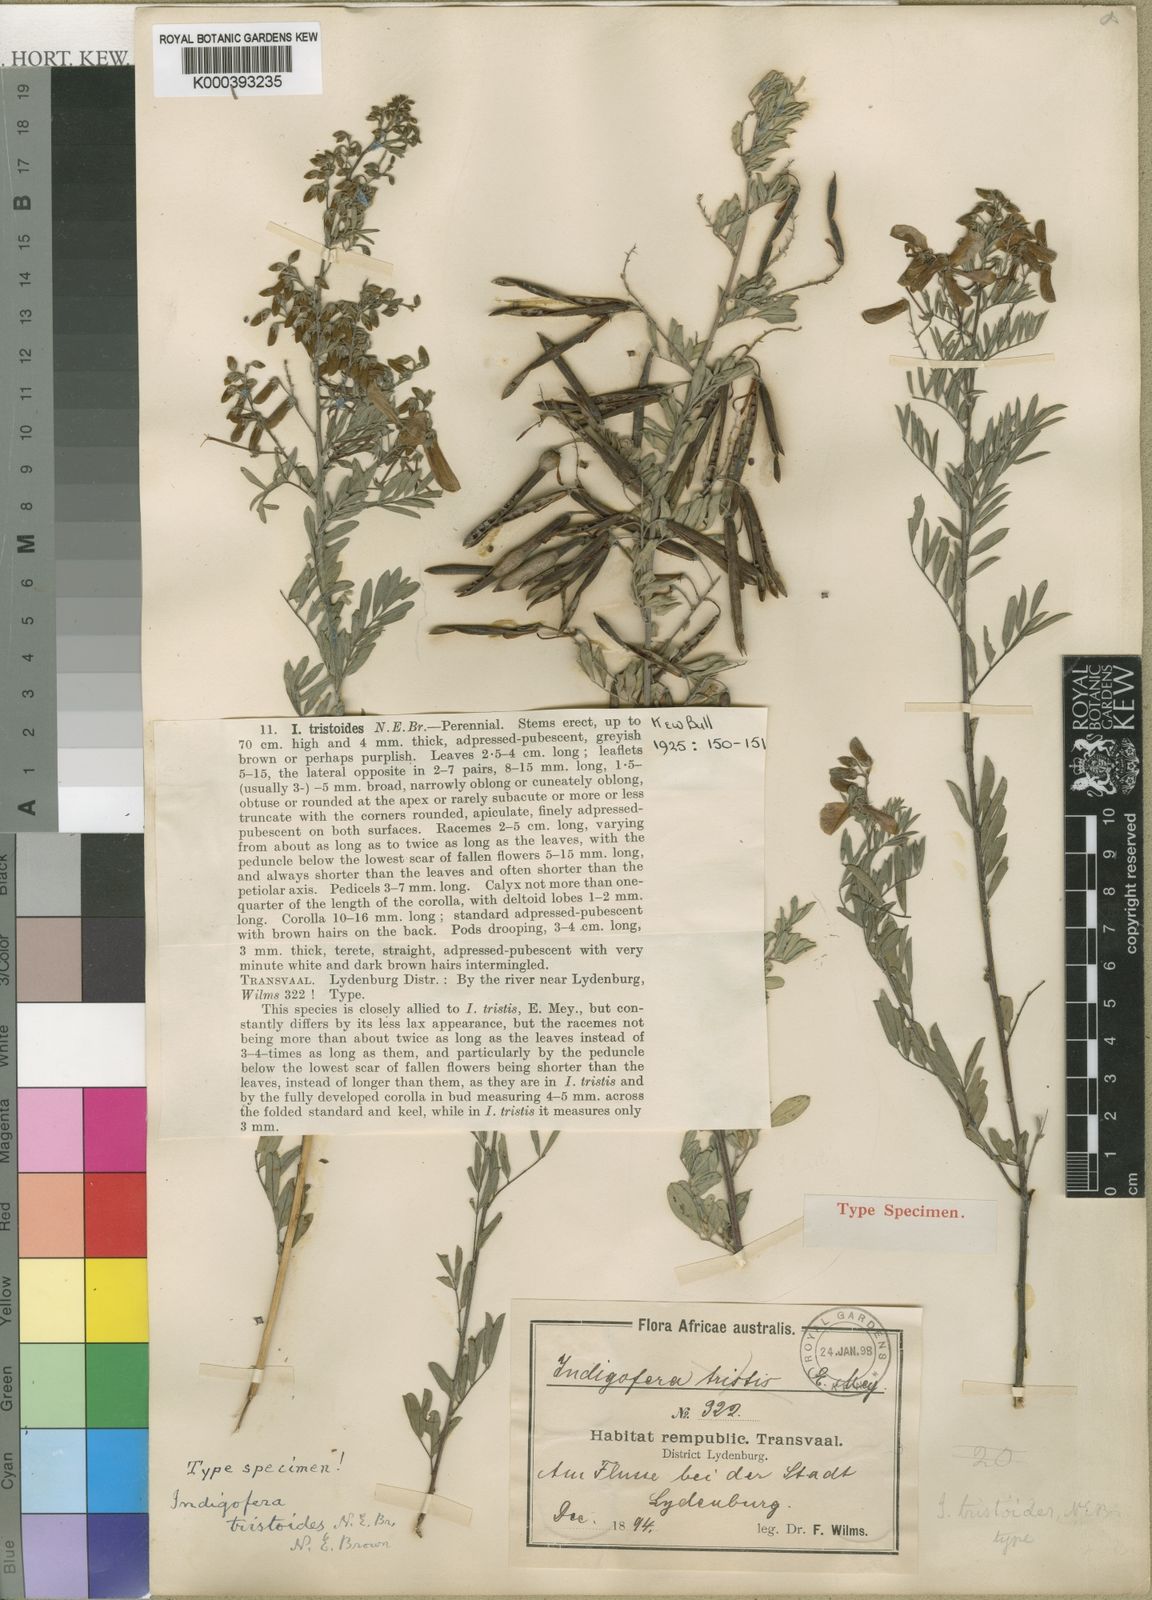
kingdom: Plantae
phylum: Tracheophyta
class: Magnoliopsida
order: Fabales
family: Fabaceae
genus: Indigofera
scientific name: Indigofera tristoides
